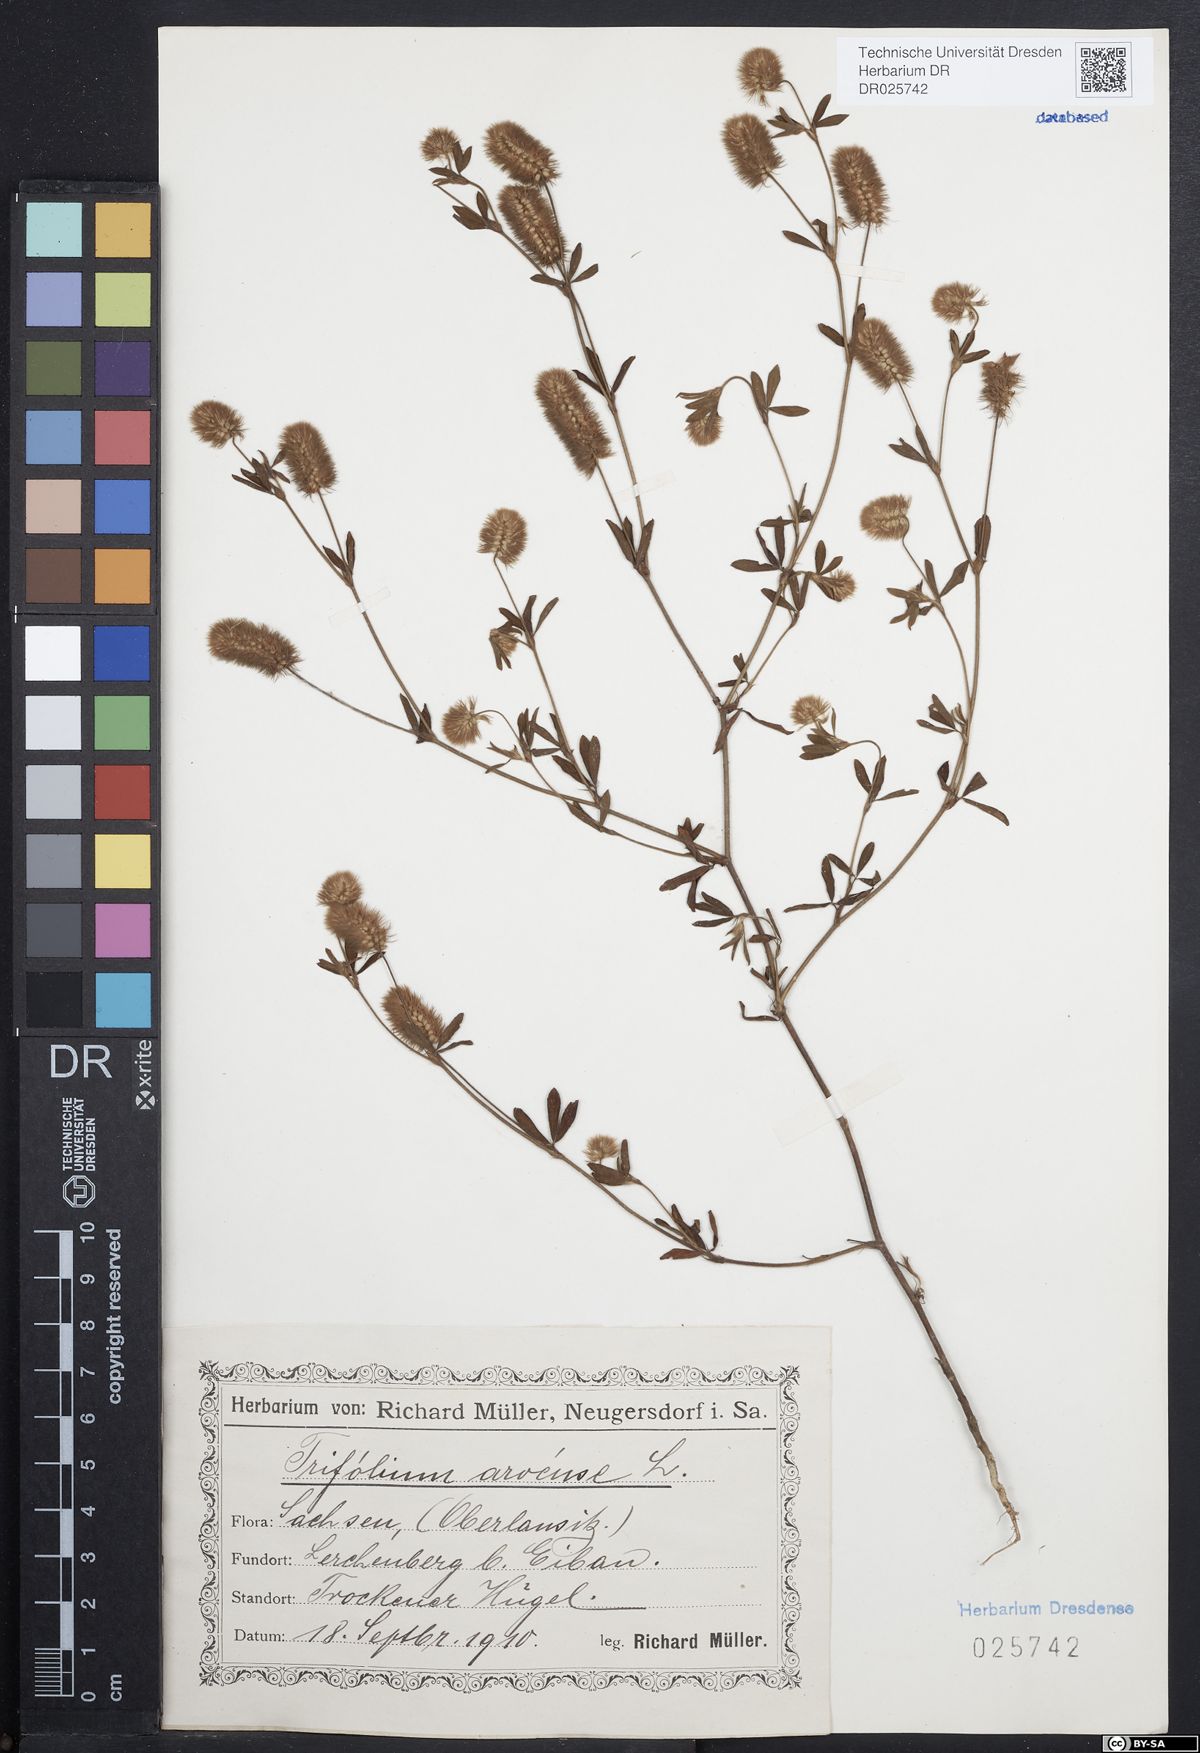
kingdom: Plantae
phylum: Tracheophyta
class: Magnoliopsida
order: Fabales
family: Fabaceae
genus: Trifolium
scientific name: Trifolium arvense
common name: Hare's-foot clover
